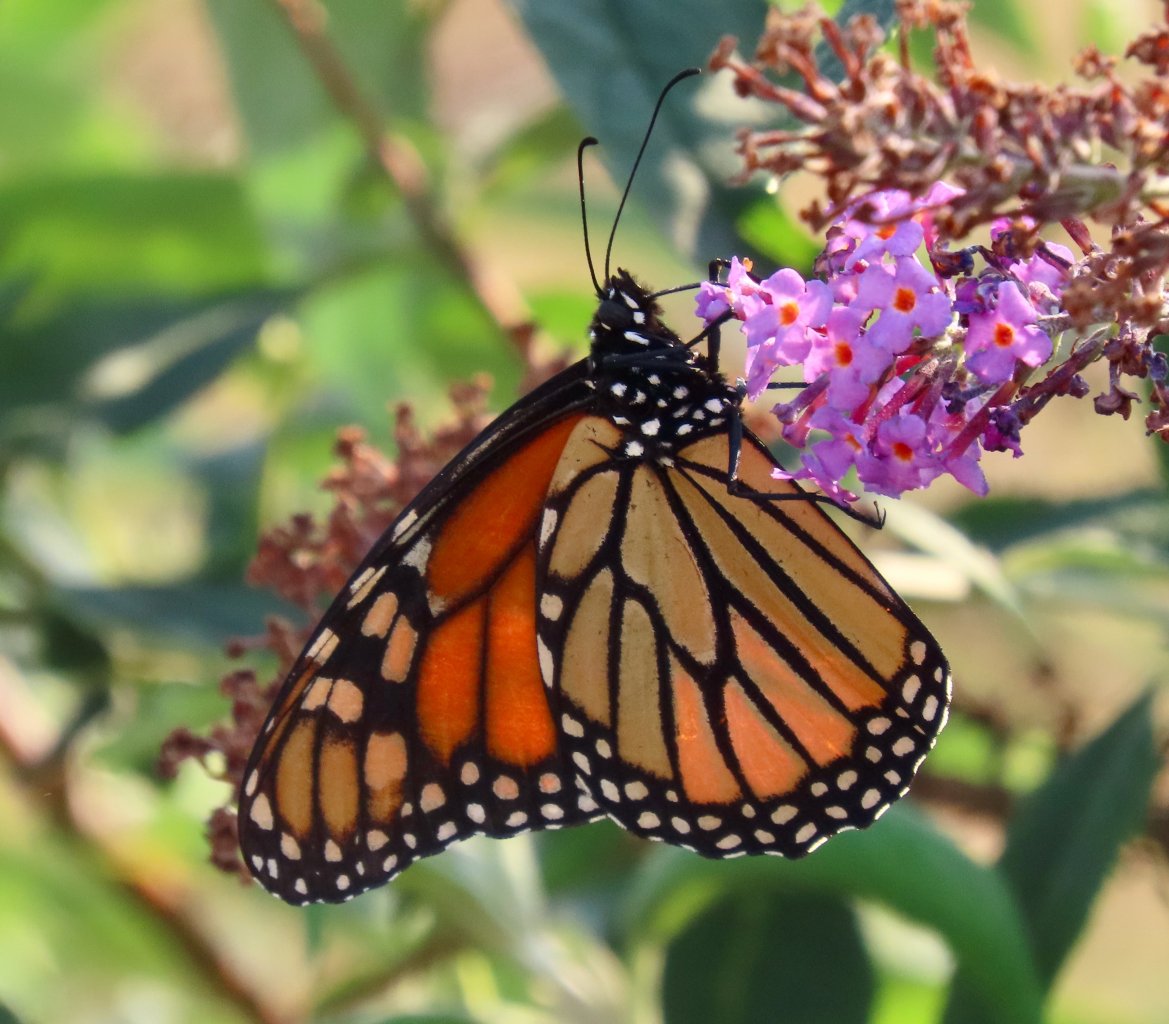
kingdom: Animalia
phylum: Arthropoda
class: Insecta
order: Lepidoptera
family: Nymphalidae
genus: Danaus
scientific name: Danaus plexippus
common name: Monarch
